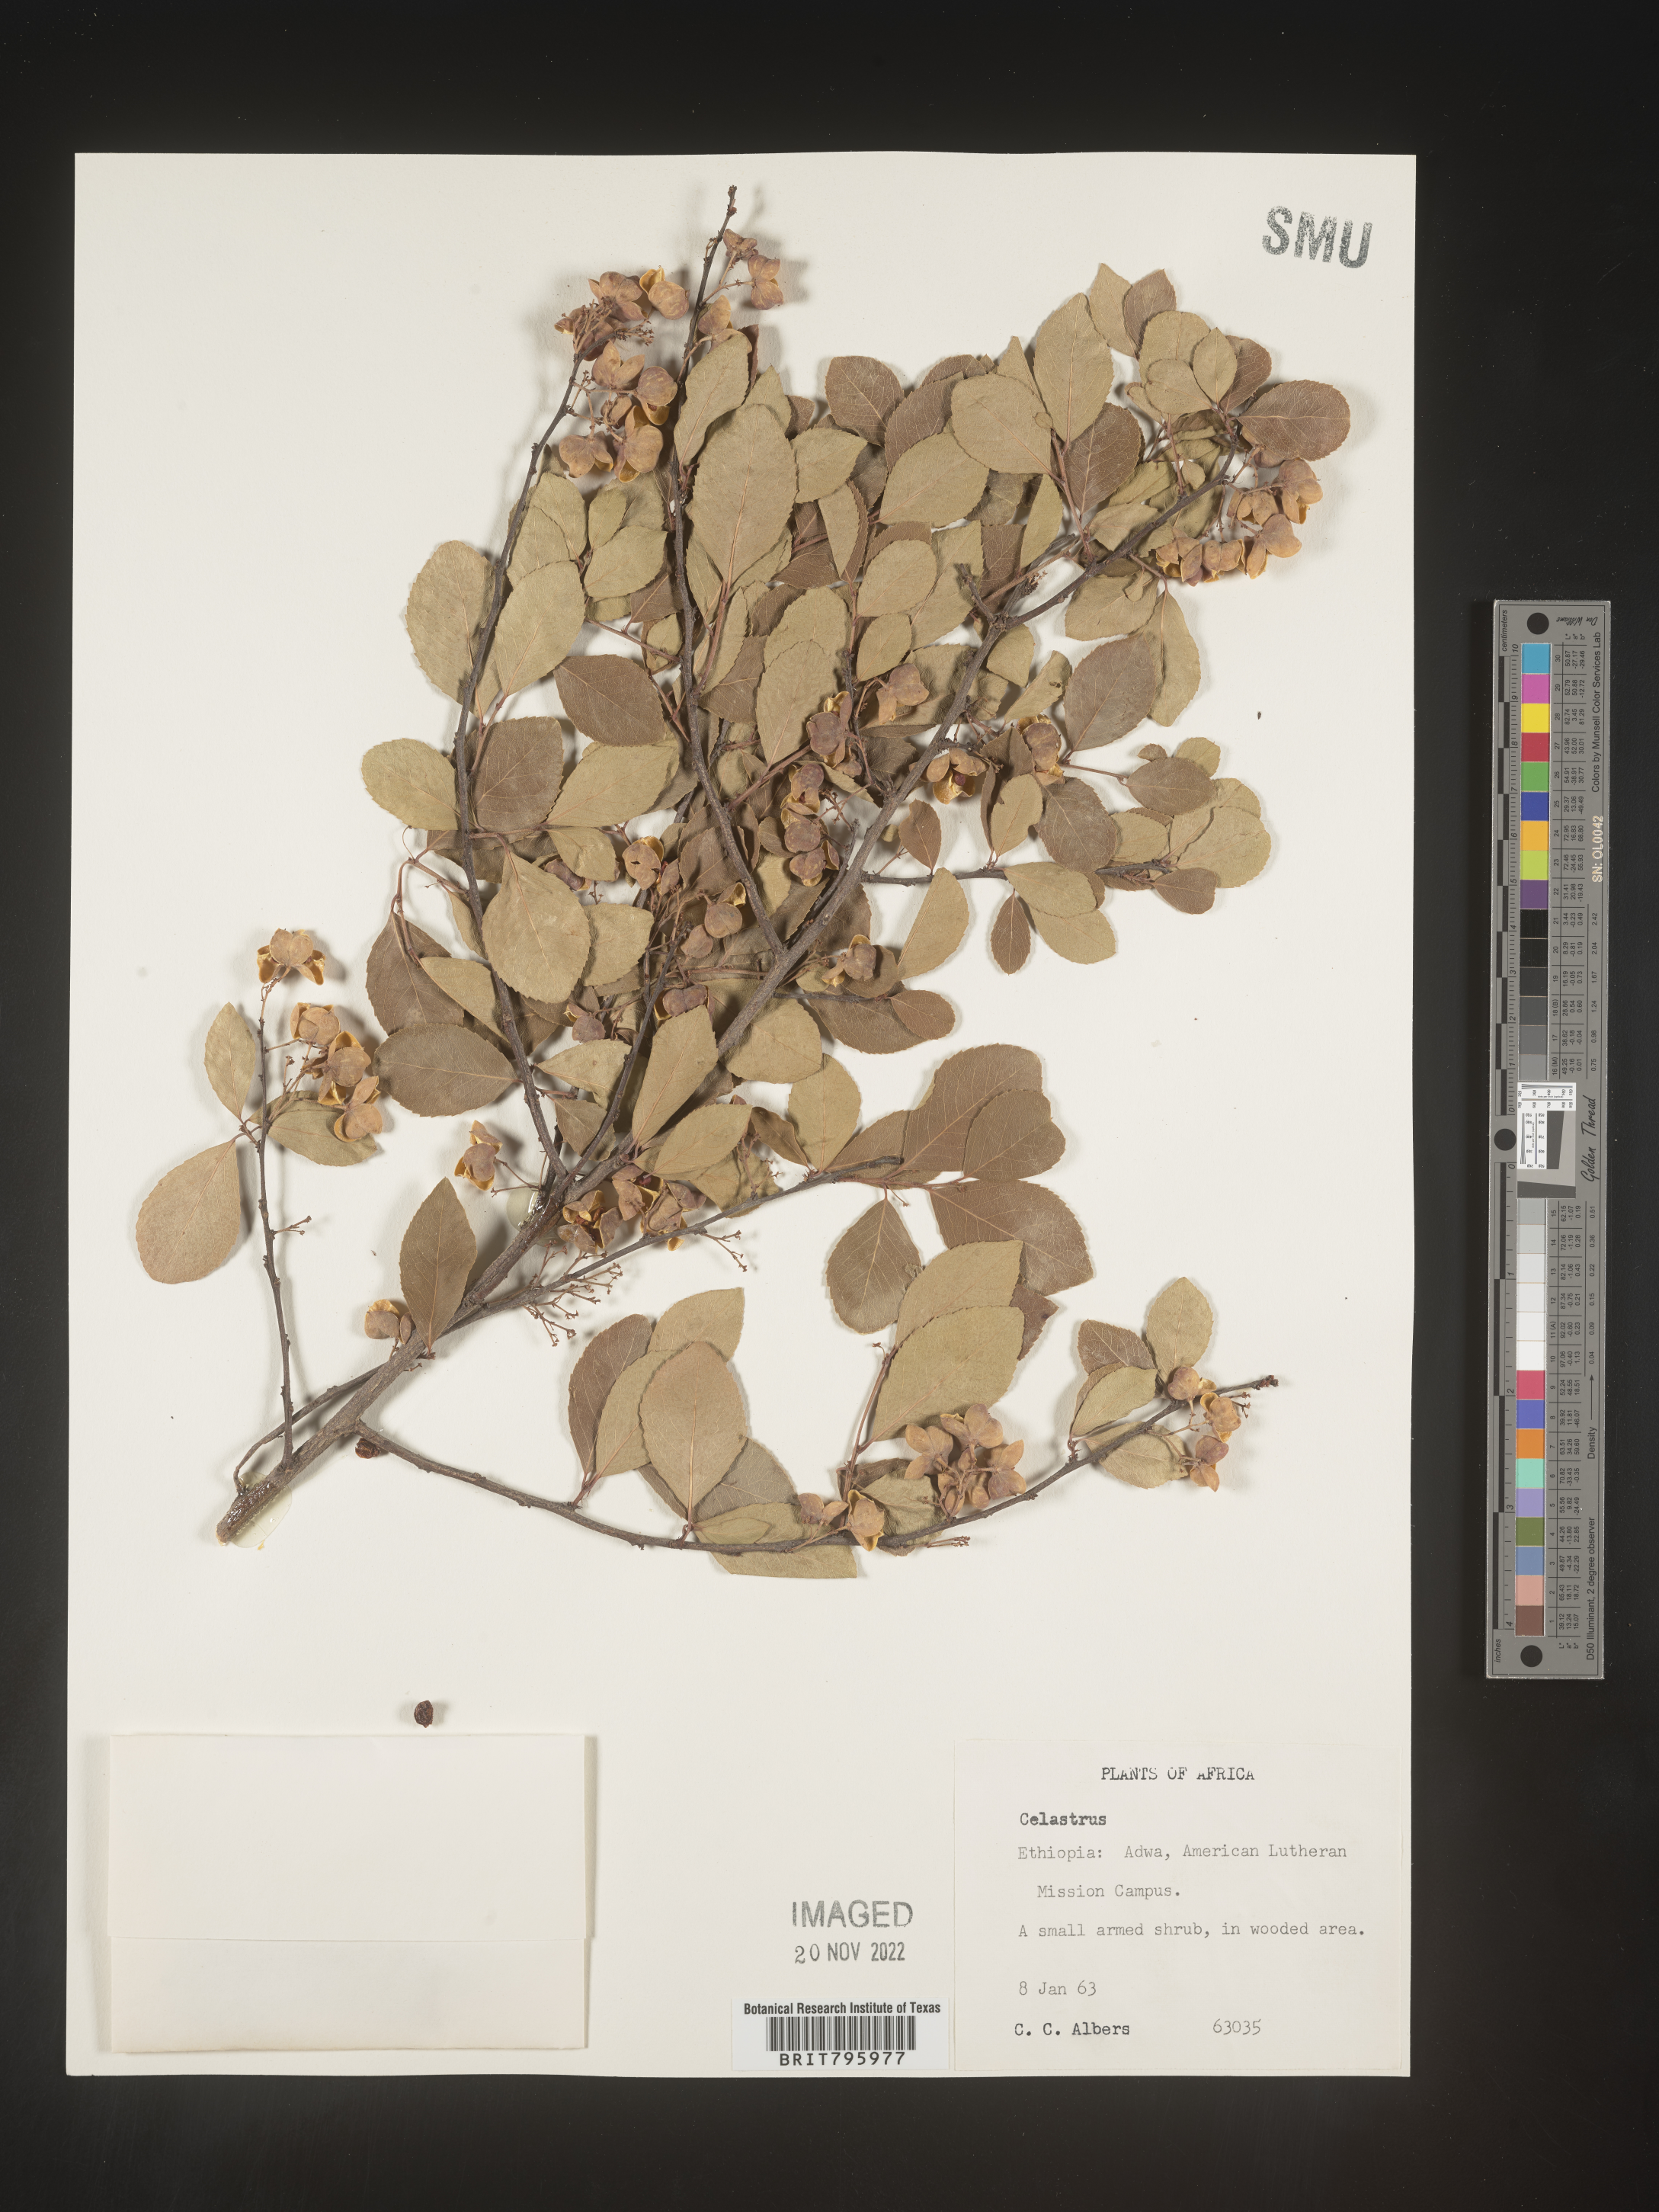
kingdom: Plantae
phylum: Tracheophyta
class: Magnoliopsida
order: Celastrales
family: Celastraceae
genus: Celastrus
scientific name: Celastrus
